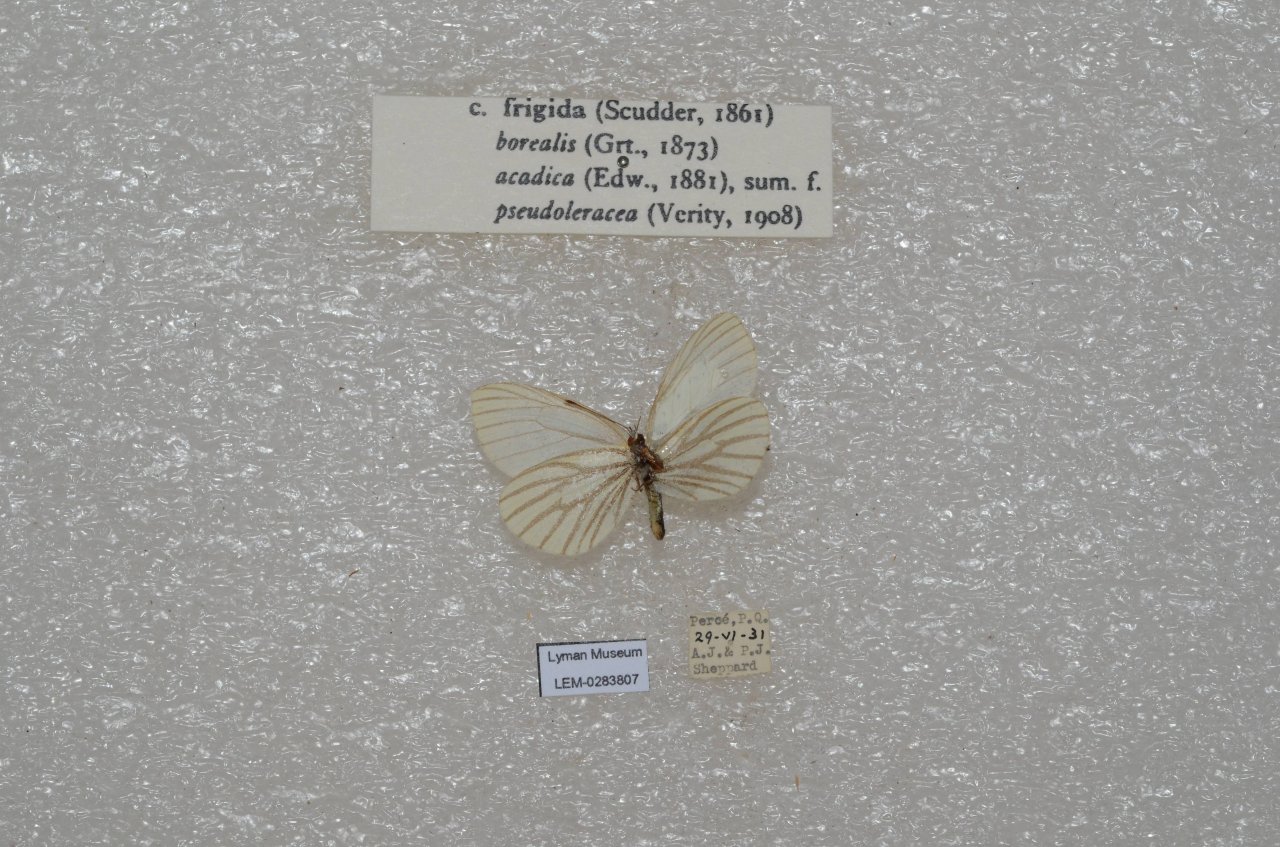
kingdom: Animalia
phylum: Arthropoda
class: Insecta
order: Lepidoptera
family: Pieridae
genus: Pieris
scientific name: Pieris oleracea
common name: Mustard White
